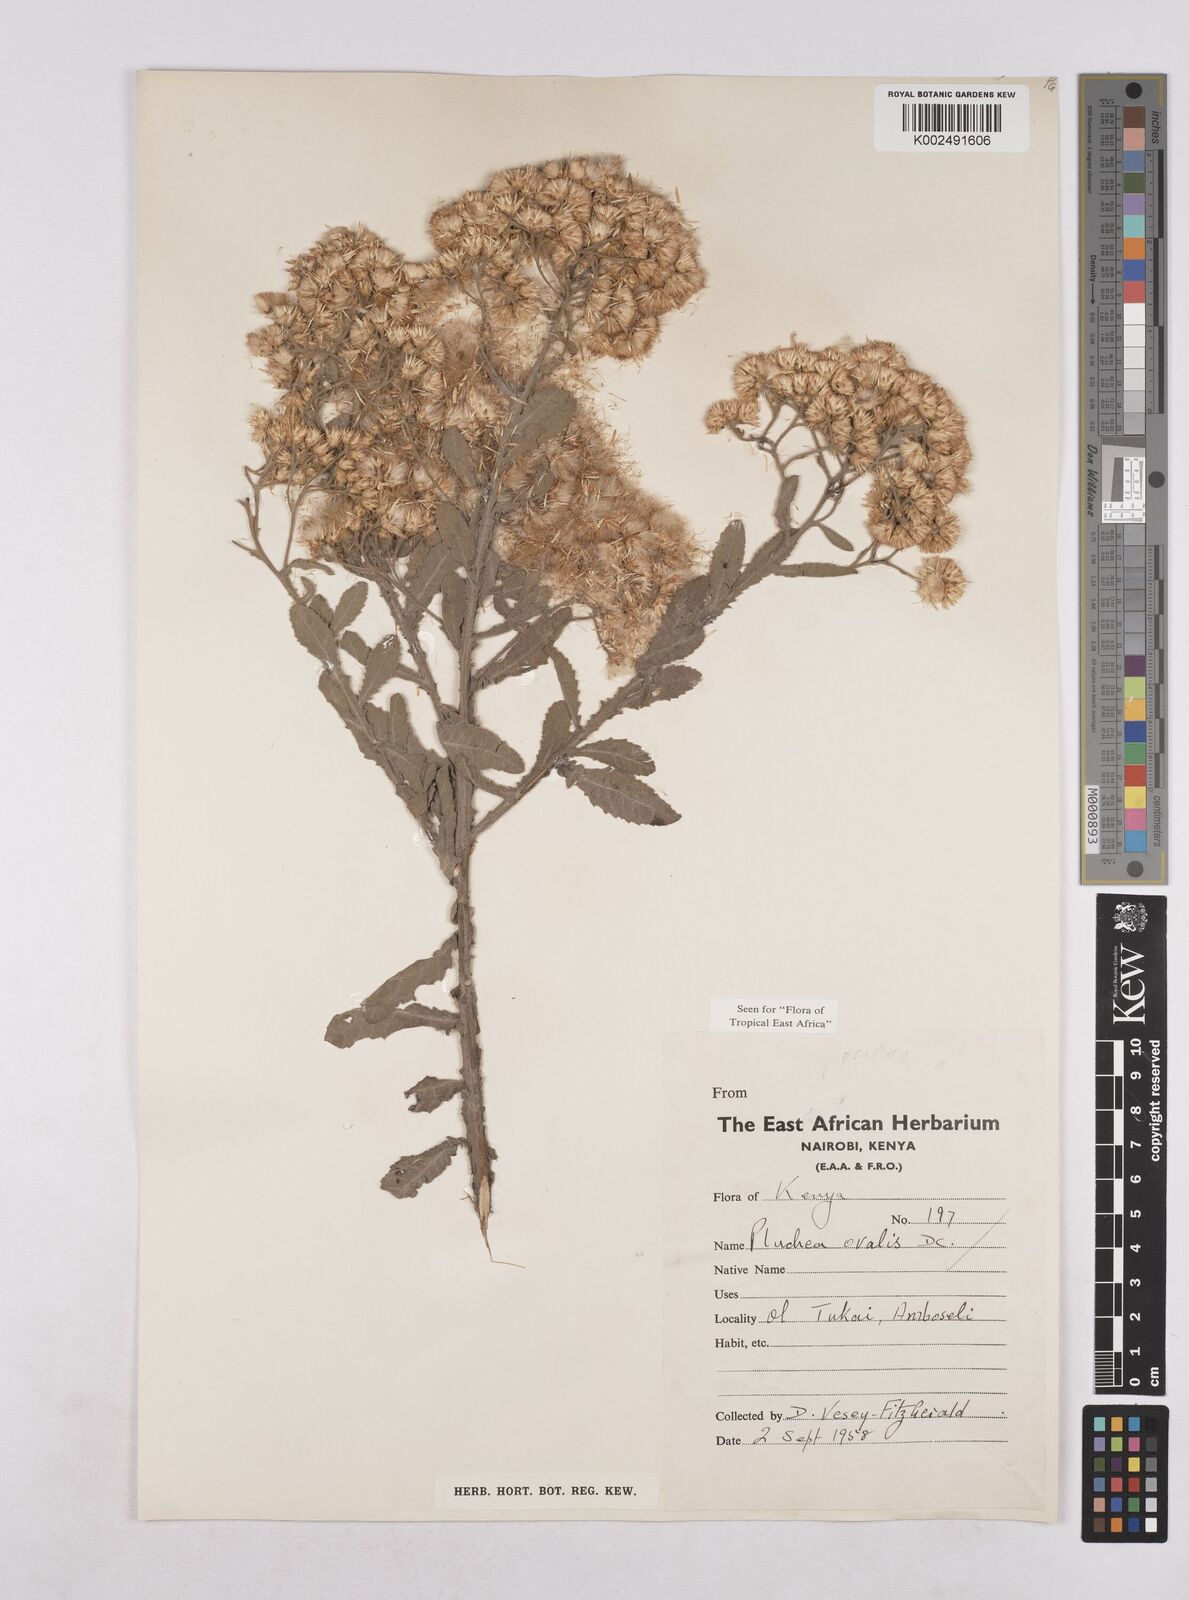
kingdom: Plantae
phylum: Tracheophyta
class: Magnoliopsida
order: Asterales
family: Asteraceae
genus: Pluchea
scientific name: Pluchea ovalis
